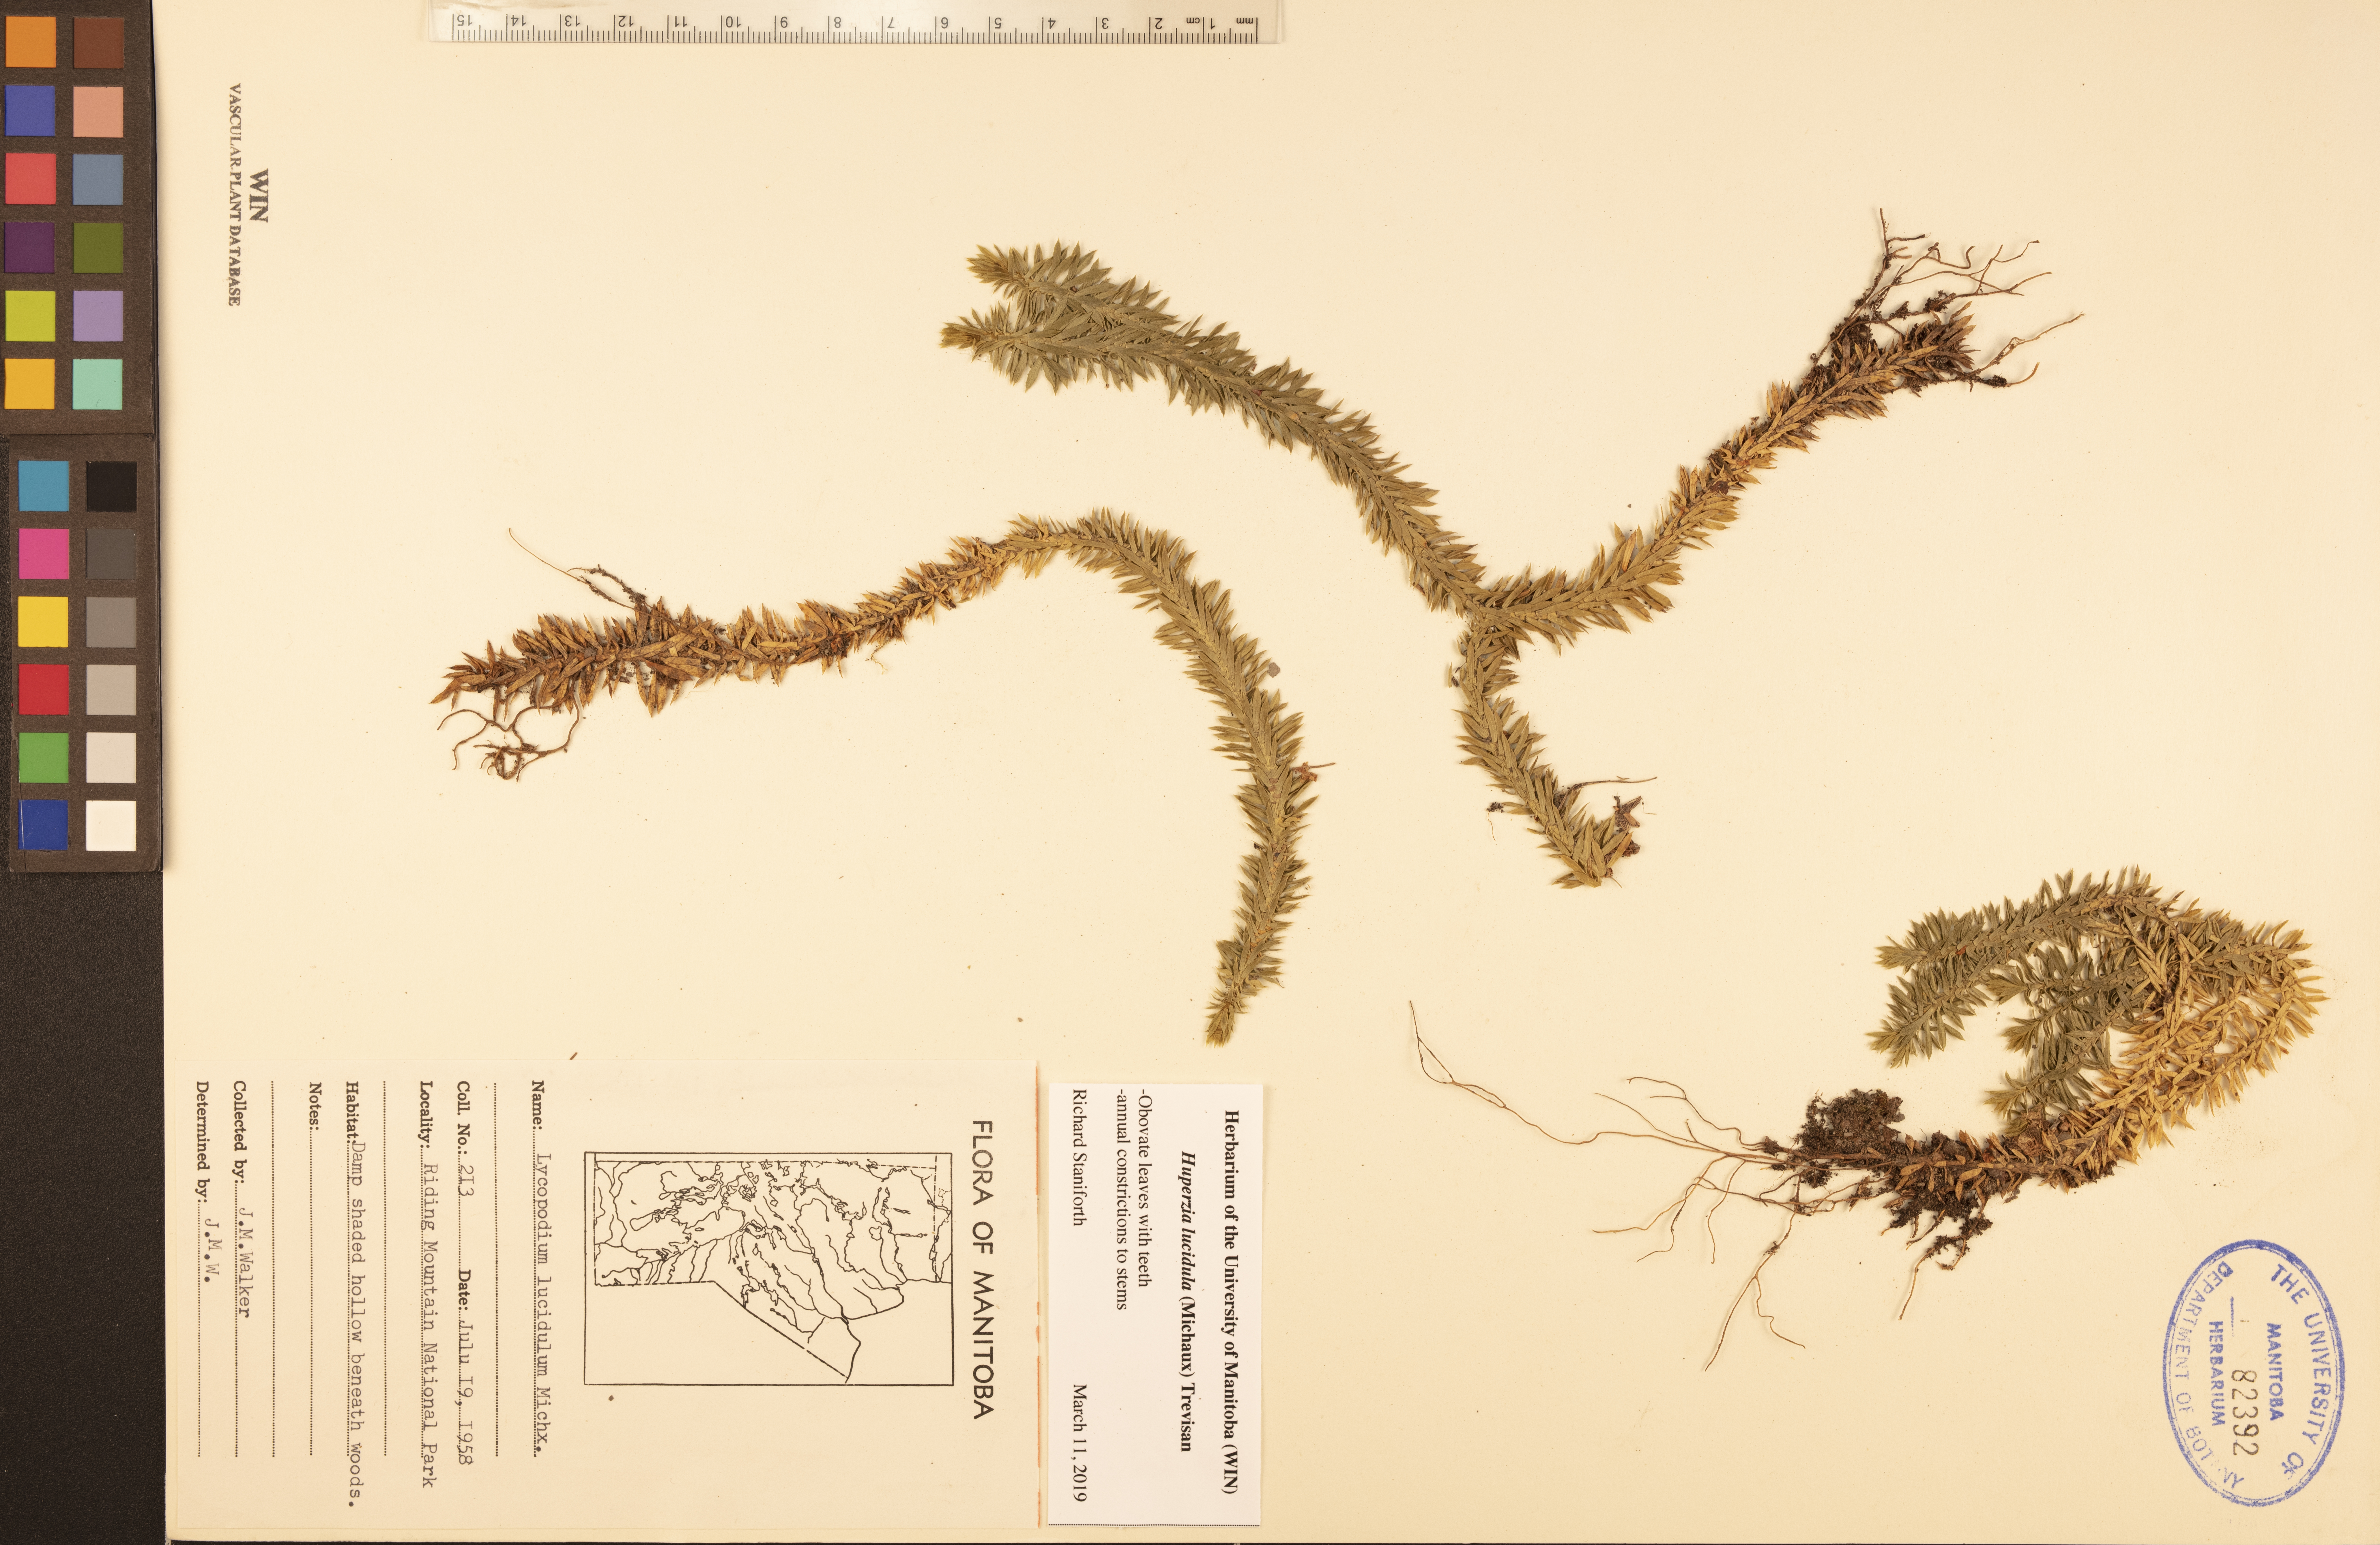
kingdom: Plantae
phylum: Tracheophyta
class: Lycopodiopsida
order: Lycopodiales
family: Lycopodiaceae
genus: Huperzia
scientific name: Huperzia lucidula
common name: Shining clubmoss
